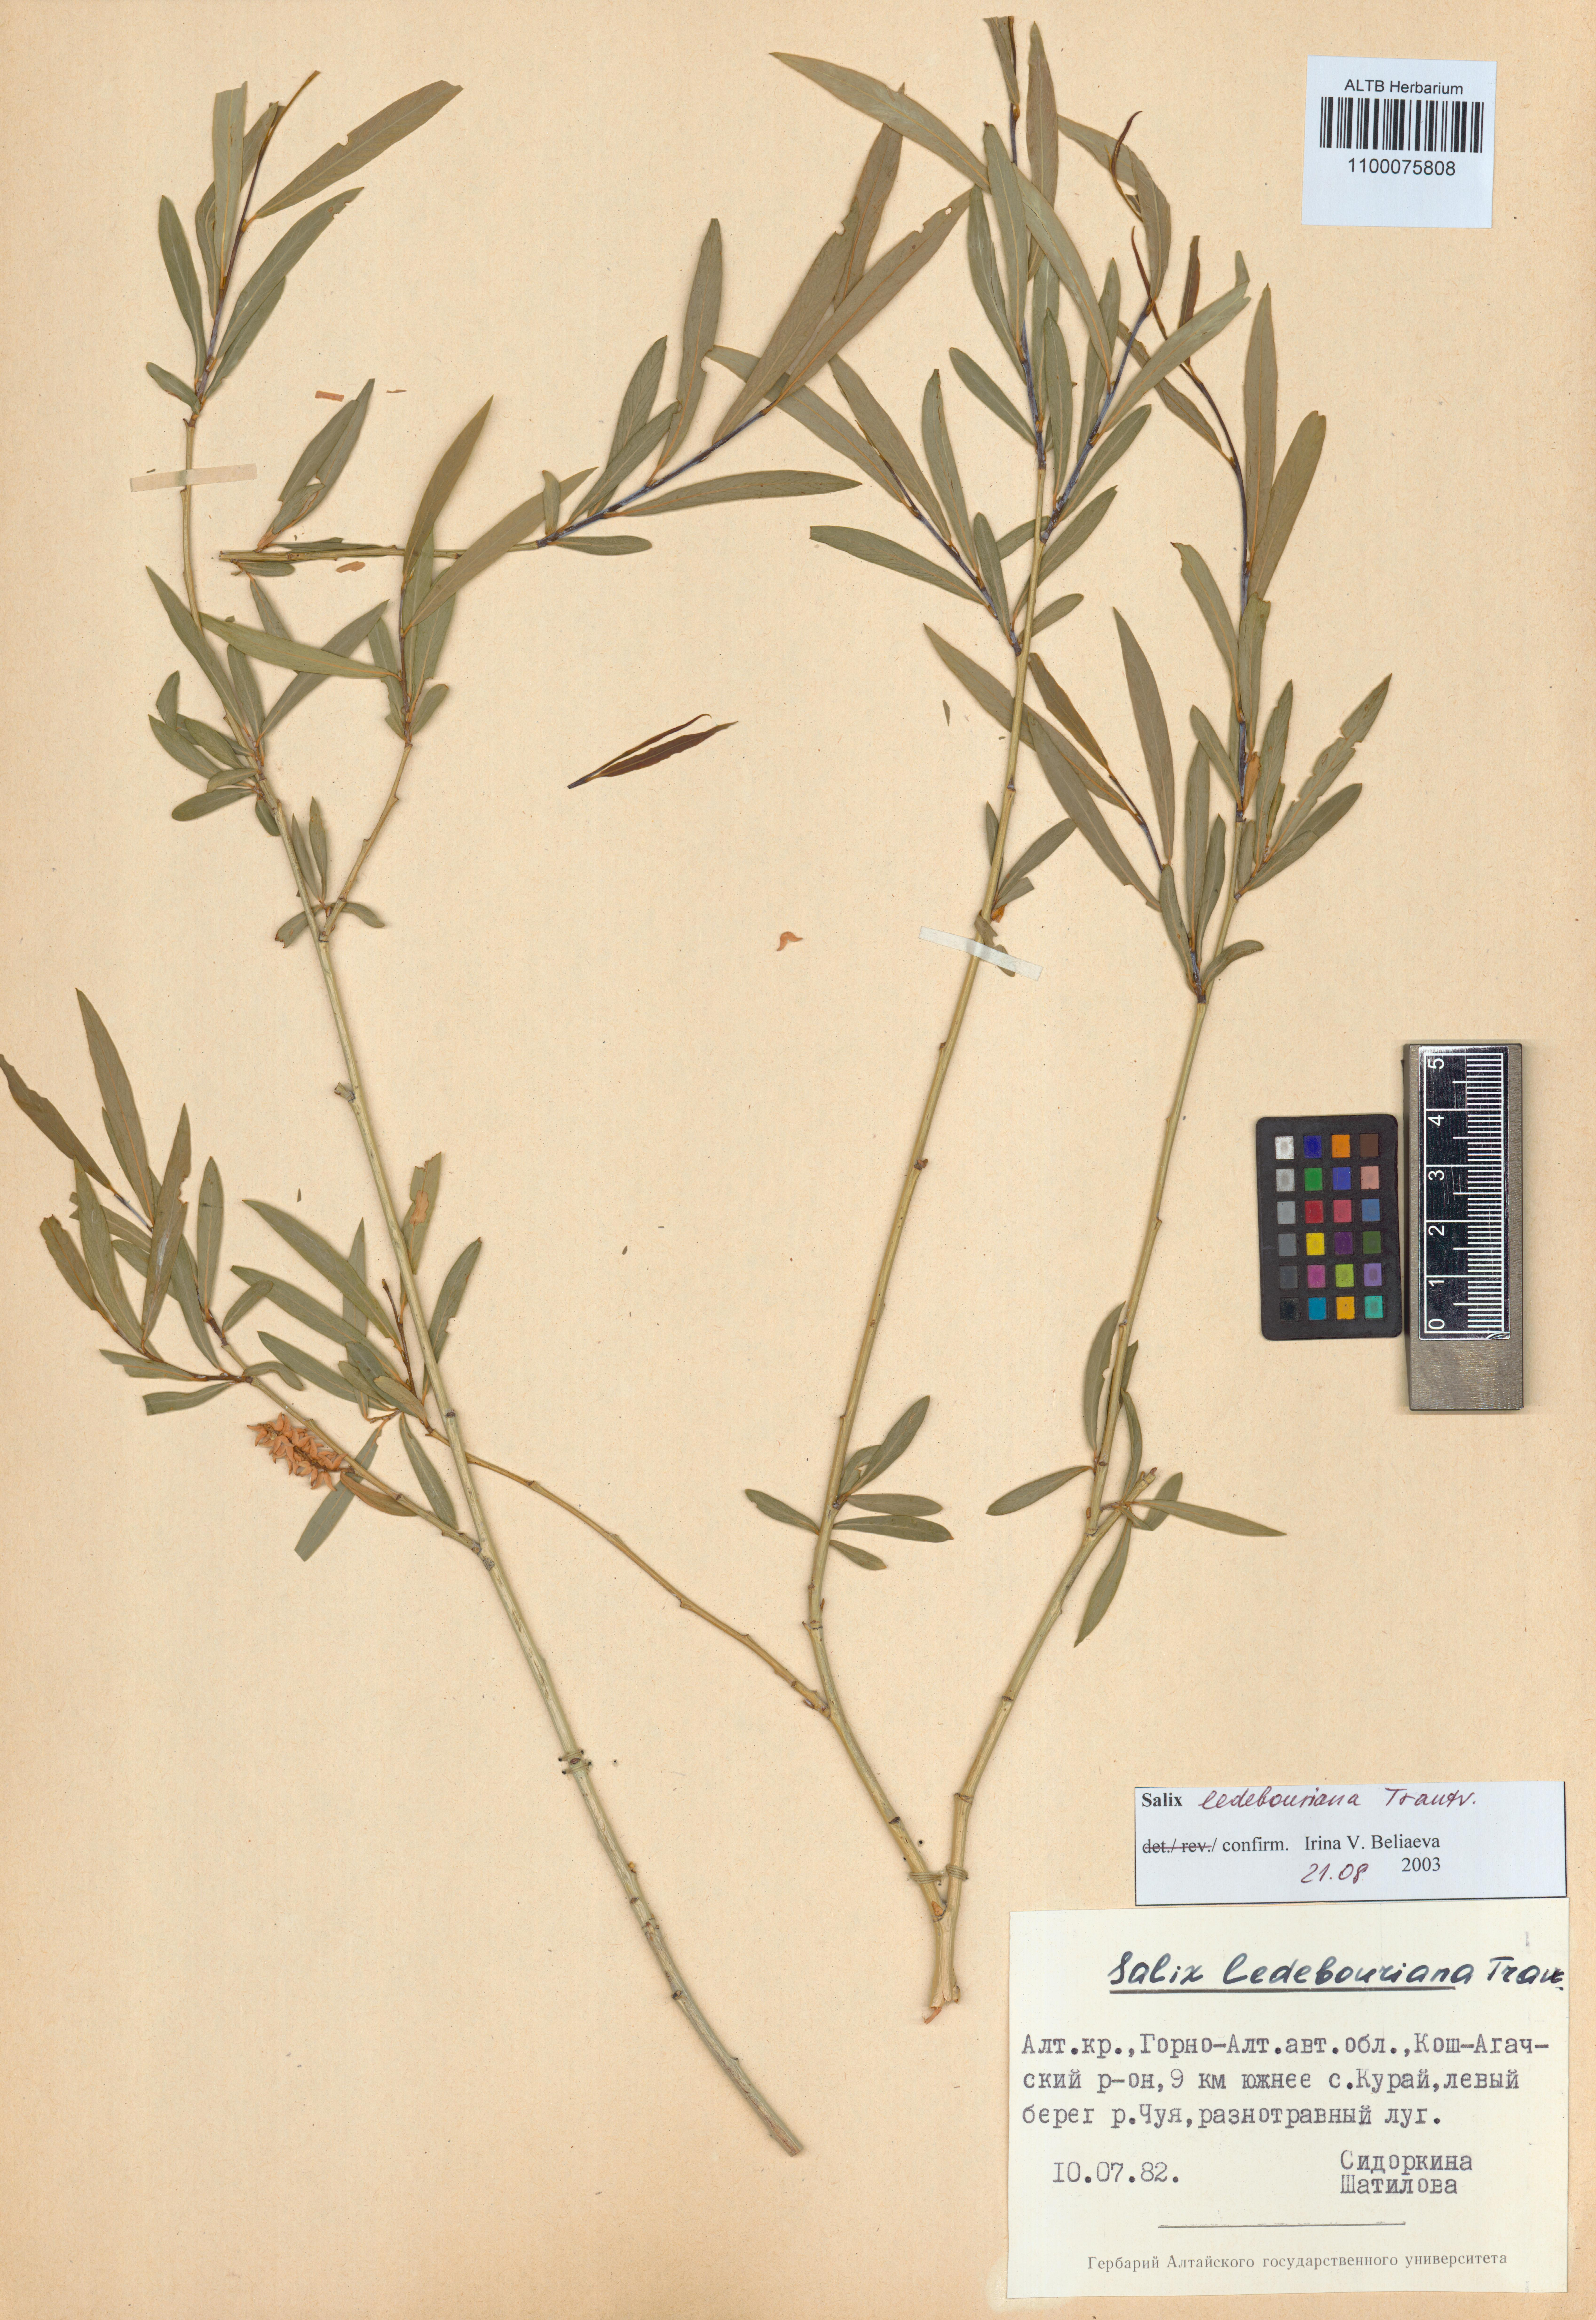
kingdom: Plantae
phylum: Tracheophyta
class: Magnoliopsida
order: Malpighiales
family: Salicaceae
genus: Salix
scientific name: Salix ledebouriana
